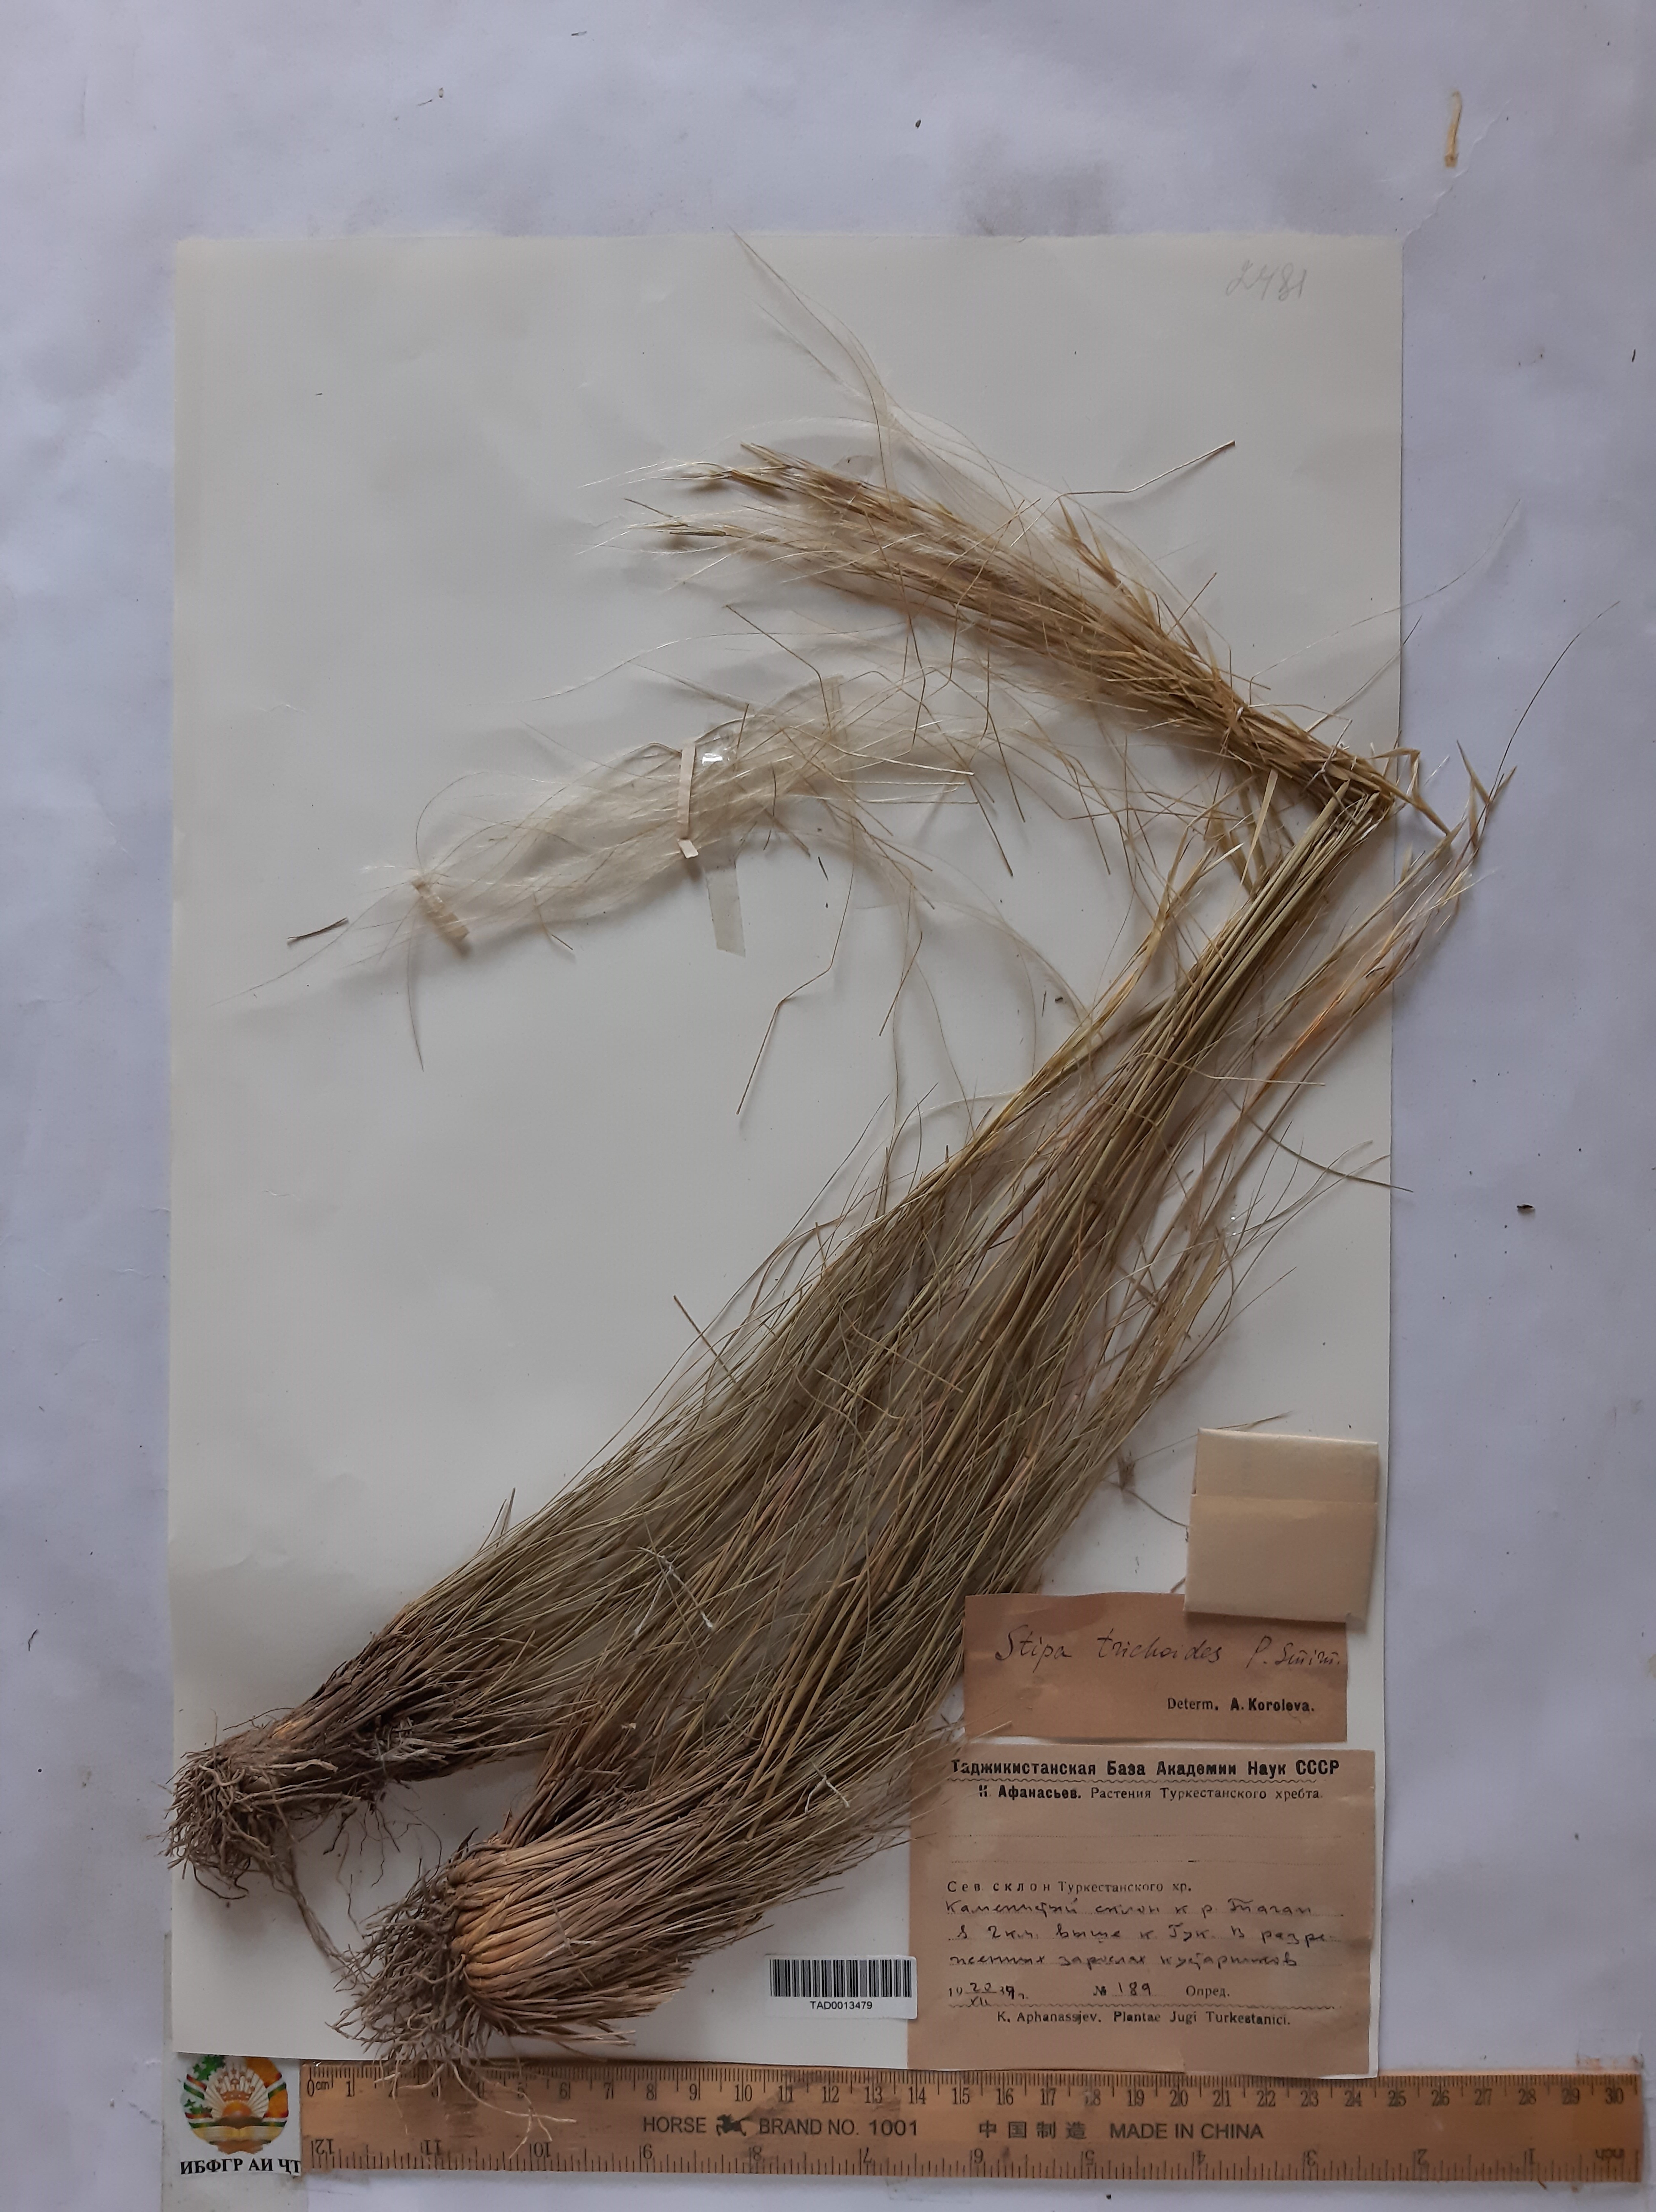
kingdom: Plantae
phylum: Tracheophyta
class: Liliopsida
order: Poales
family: Poaceae
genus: Stipa
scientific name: Stipa trichoides
